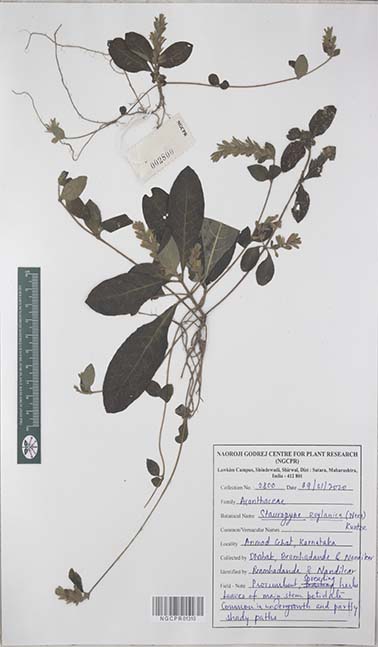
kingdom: Plantae
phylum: Tracheophyta
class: Magnoliopsida
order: Lamiales
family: Acanthaceae
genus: Staurogyne
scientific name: Staurogyne zeylanica
